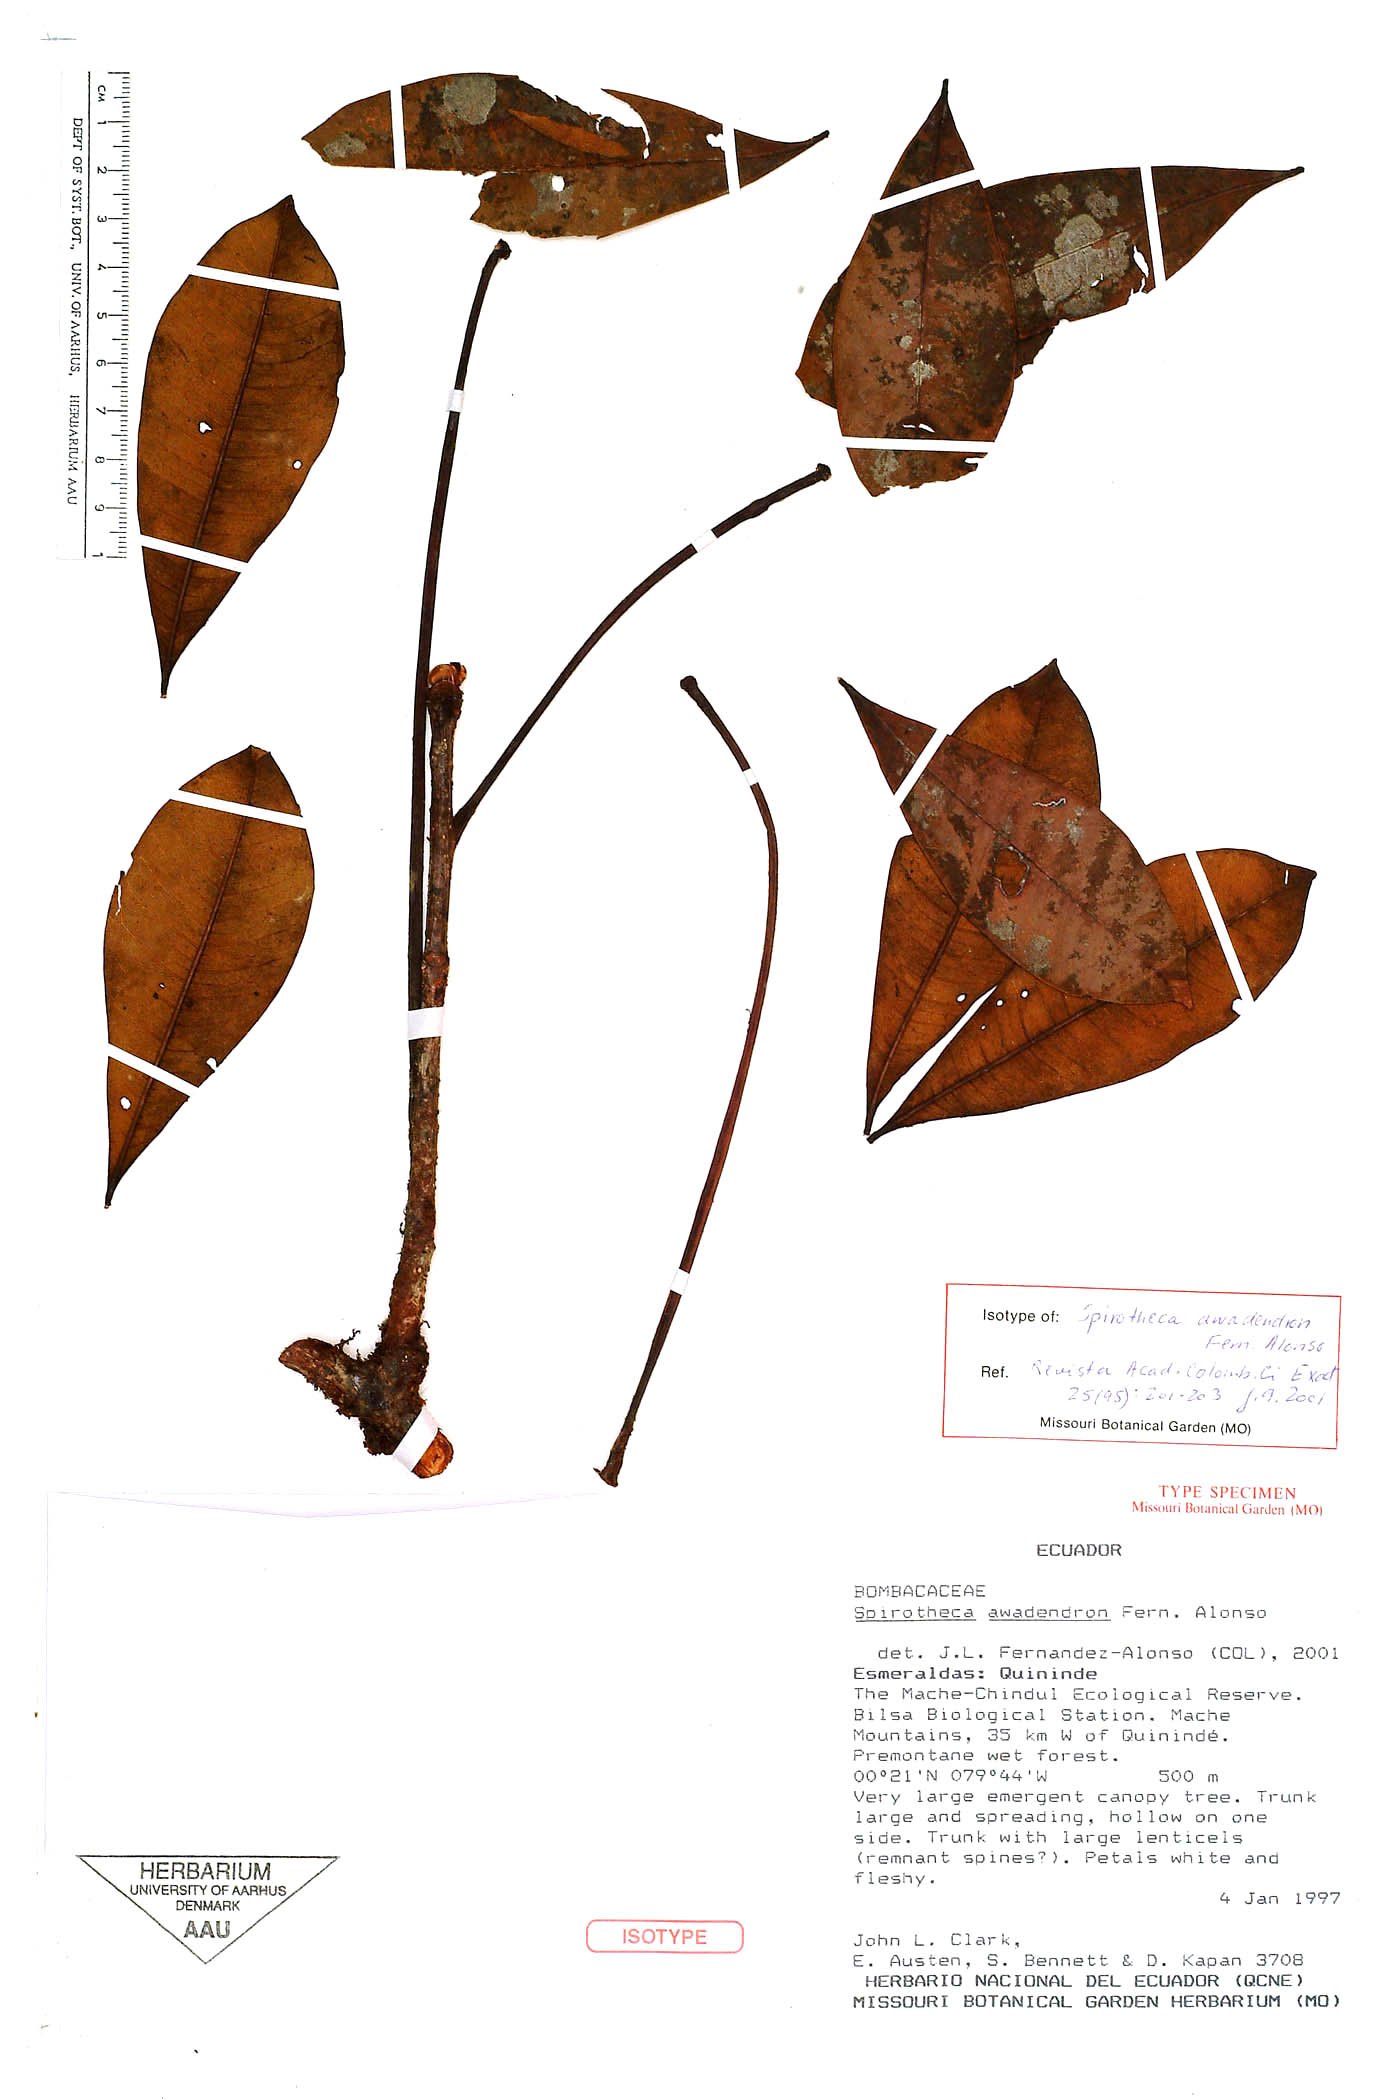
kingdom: Plantae
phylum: Tracheophyta
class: Magnoliopsida
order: Malvales
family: Malvaceae
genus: Spirotheca
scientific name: Spirotheca awadendron
